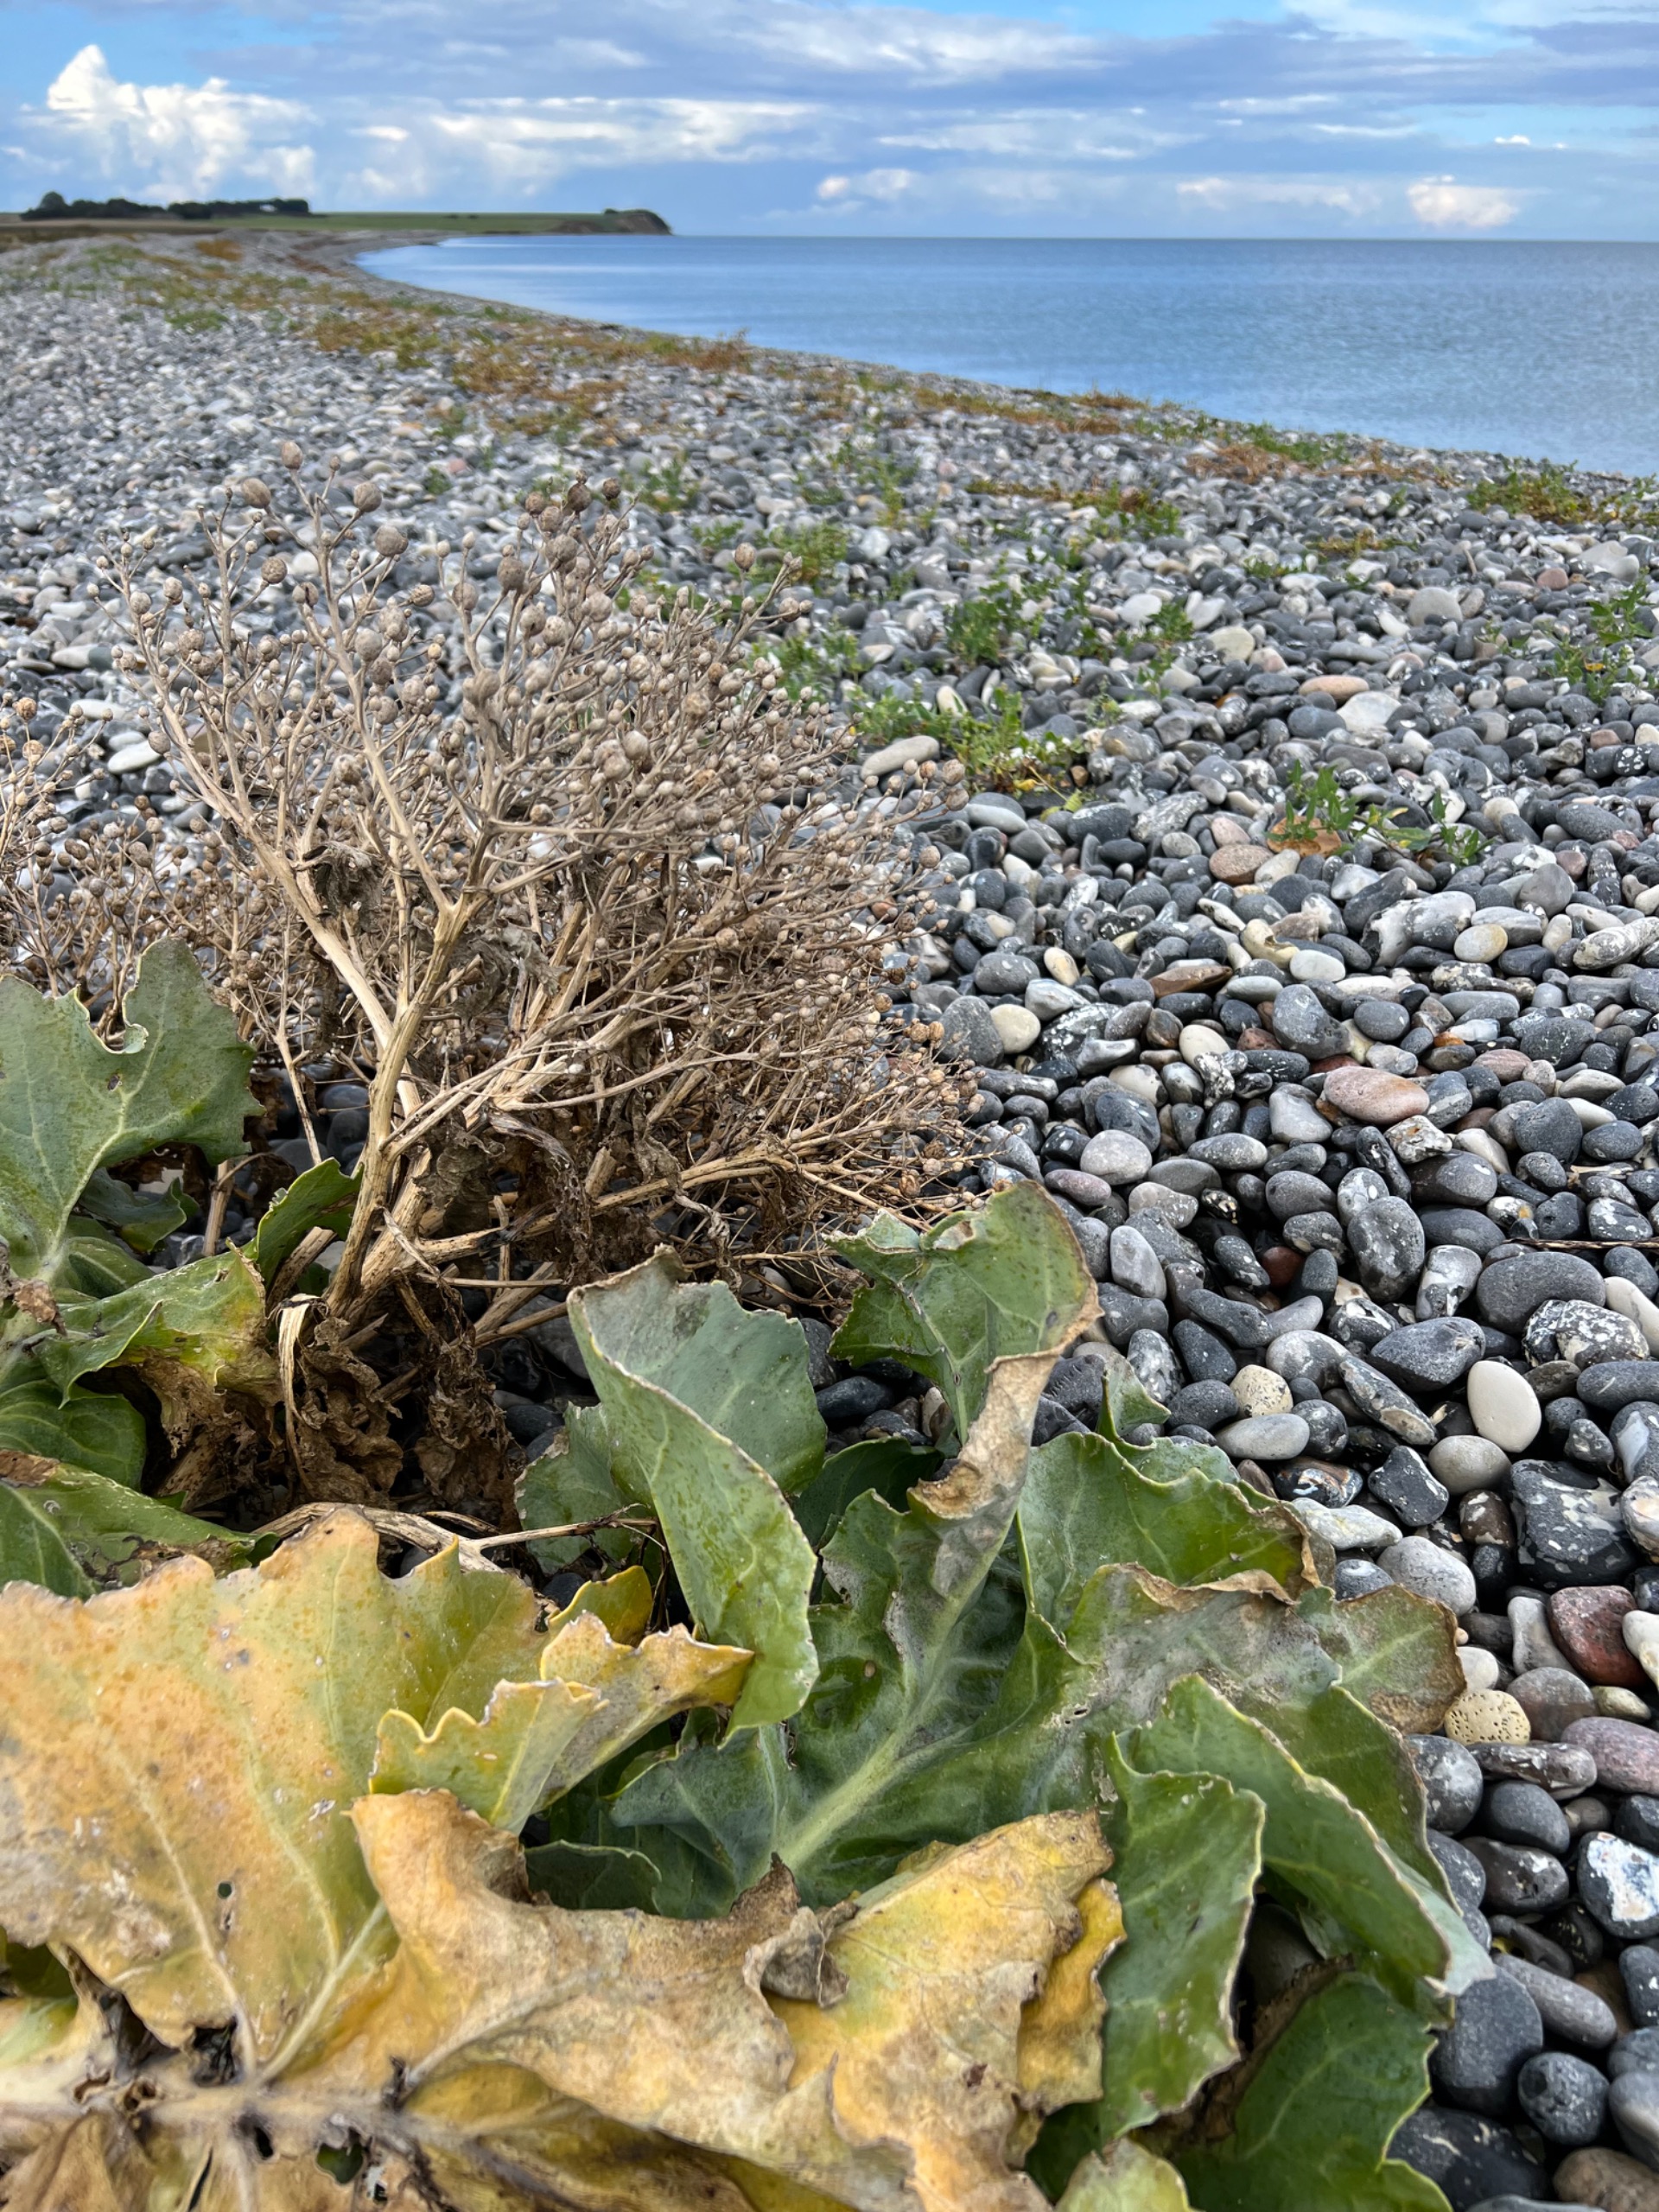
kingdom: Plantae
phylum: Tracheophyta
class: Magnoliopsida
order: Brassicales
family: Brassicaceae
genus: Crambe
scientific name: Crambe maritima
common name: Strandkål
